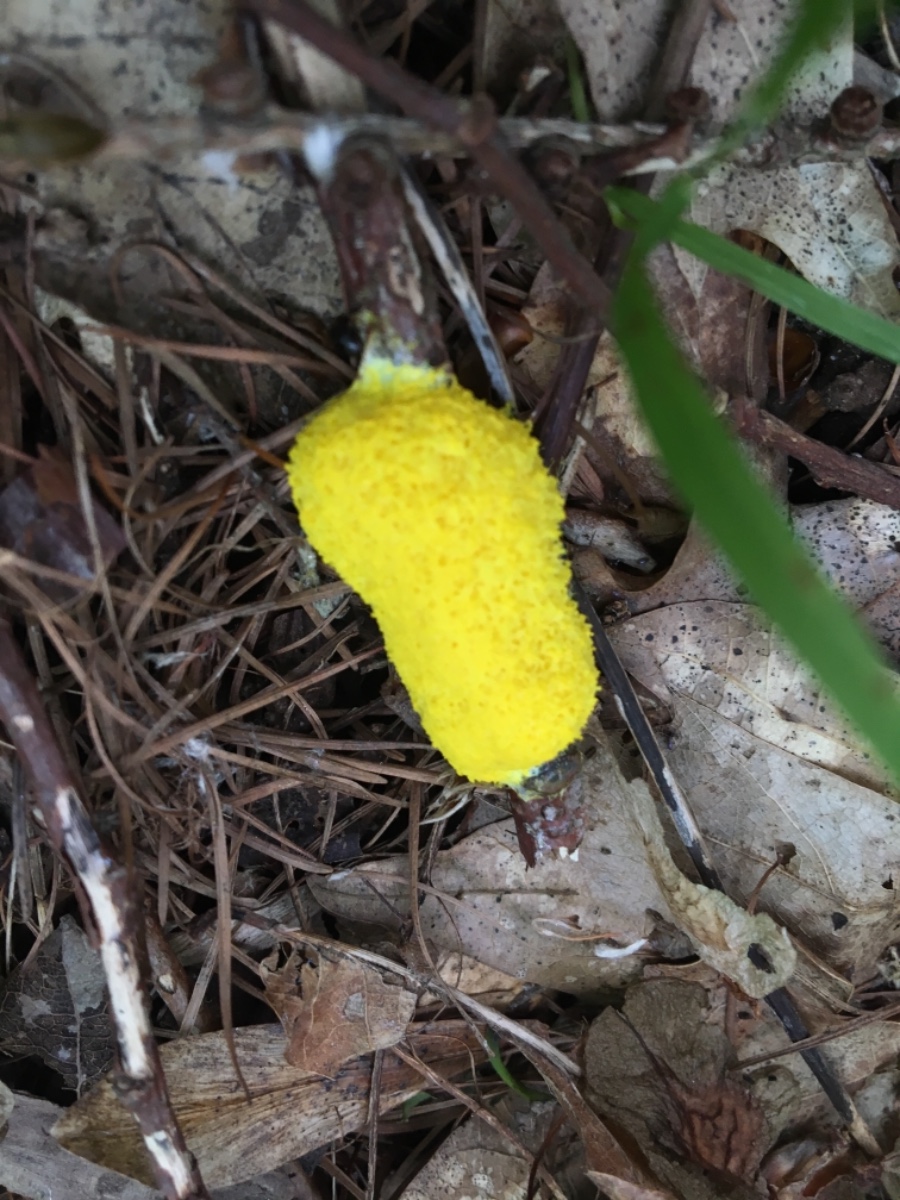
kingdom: Protozoa
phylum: Mycetozoa
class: Myxomycetes
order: Physarales
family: Physaraceae
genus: Fuligo
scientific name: Fuligo septica
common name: gul troldsmør
